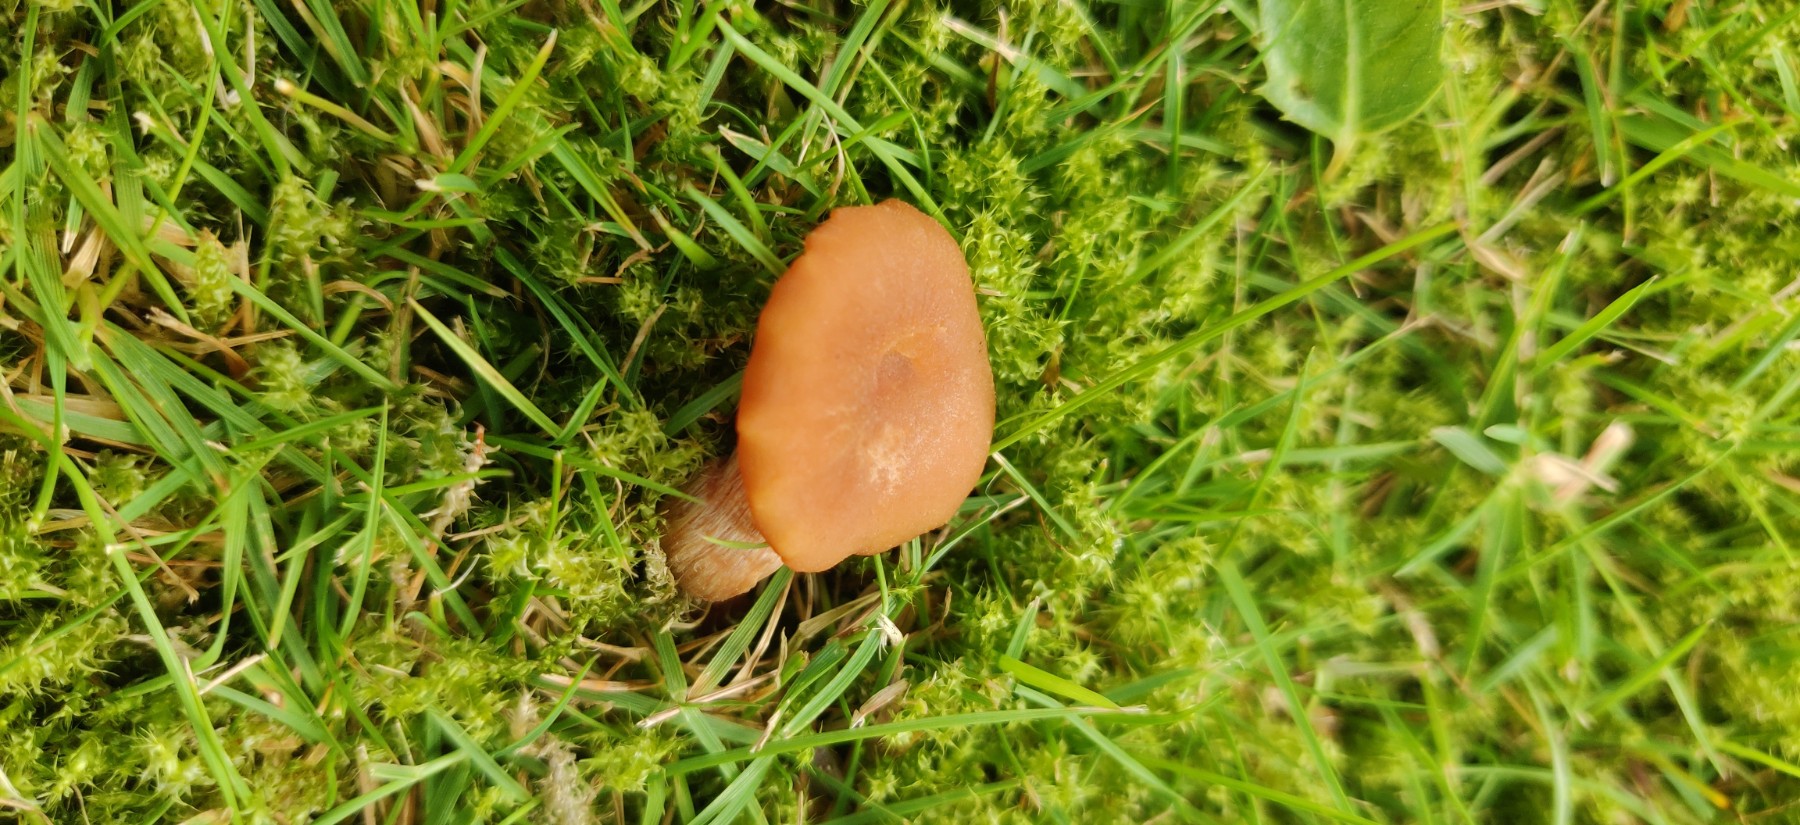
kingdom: Fungi
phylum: Basidiomycota
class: Agaricomycetes
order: Agaricales
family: Hydnangiaceae
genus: Laccaria
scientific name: Laccaria laccata
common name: rød ametysthat
